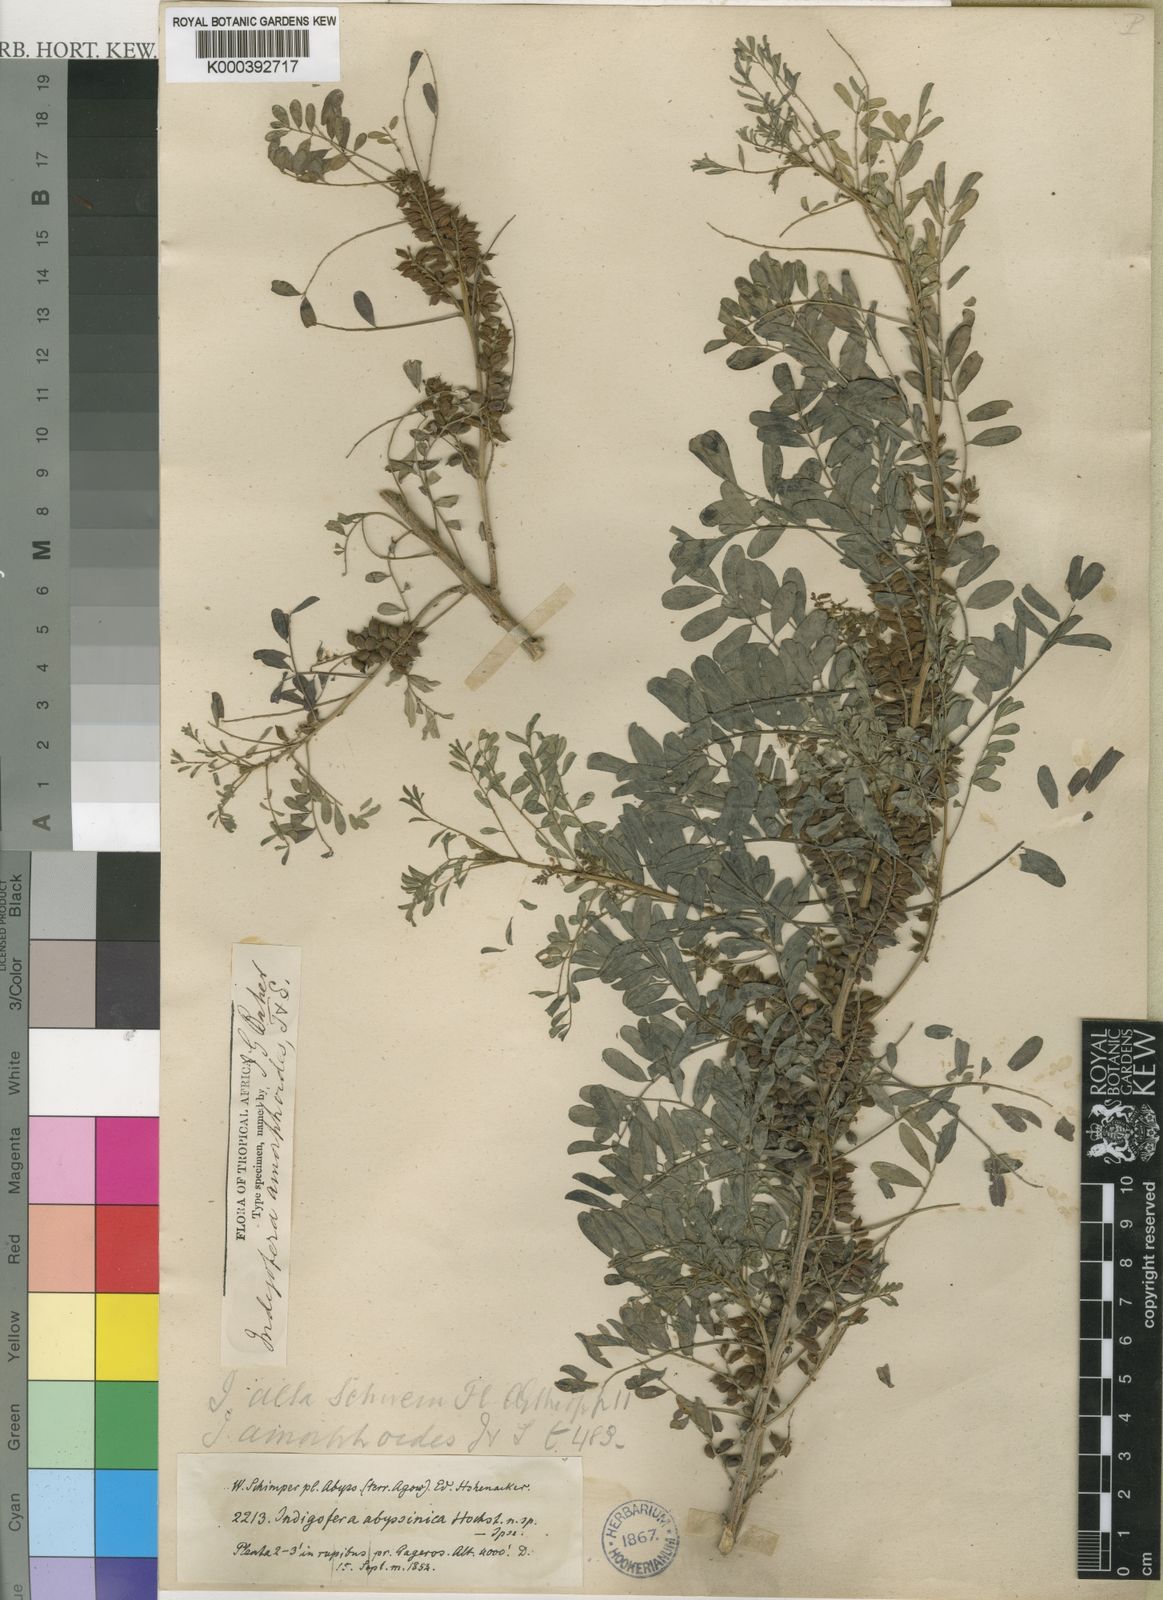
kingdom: Plantae
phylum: Tracheophyta
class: Magnoliopsida
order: Fabales
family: Fabaceae
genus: Indigofera
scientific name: Indigofera amorphoides
